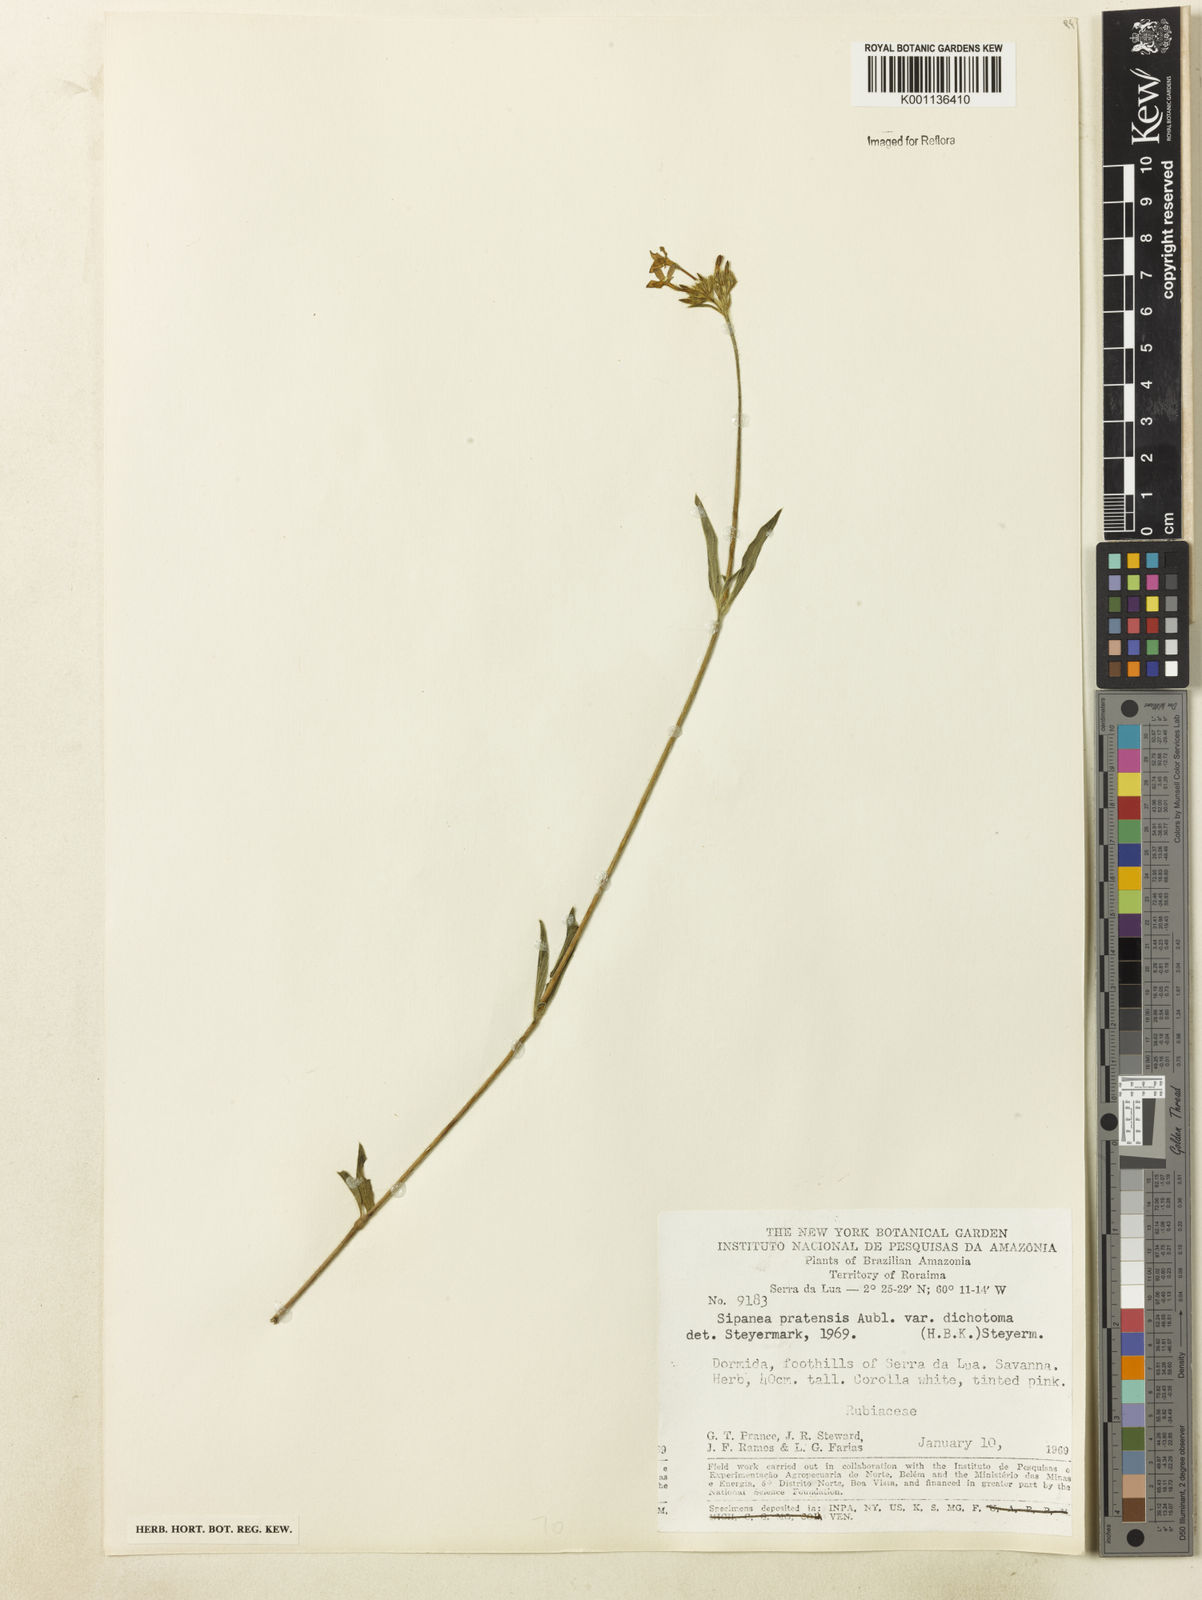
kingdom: Plantae
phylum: Tracheophyta
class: Magnoliopsida
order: Gentianales
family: Rubiaceae
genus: Sipanea
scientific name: Sipanea pratensis
